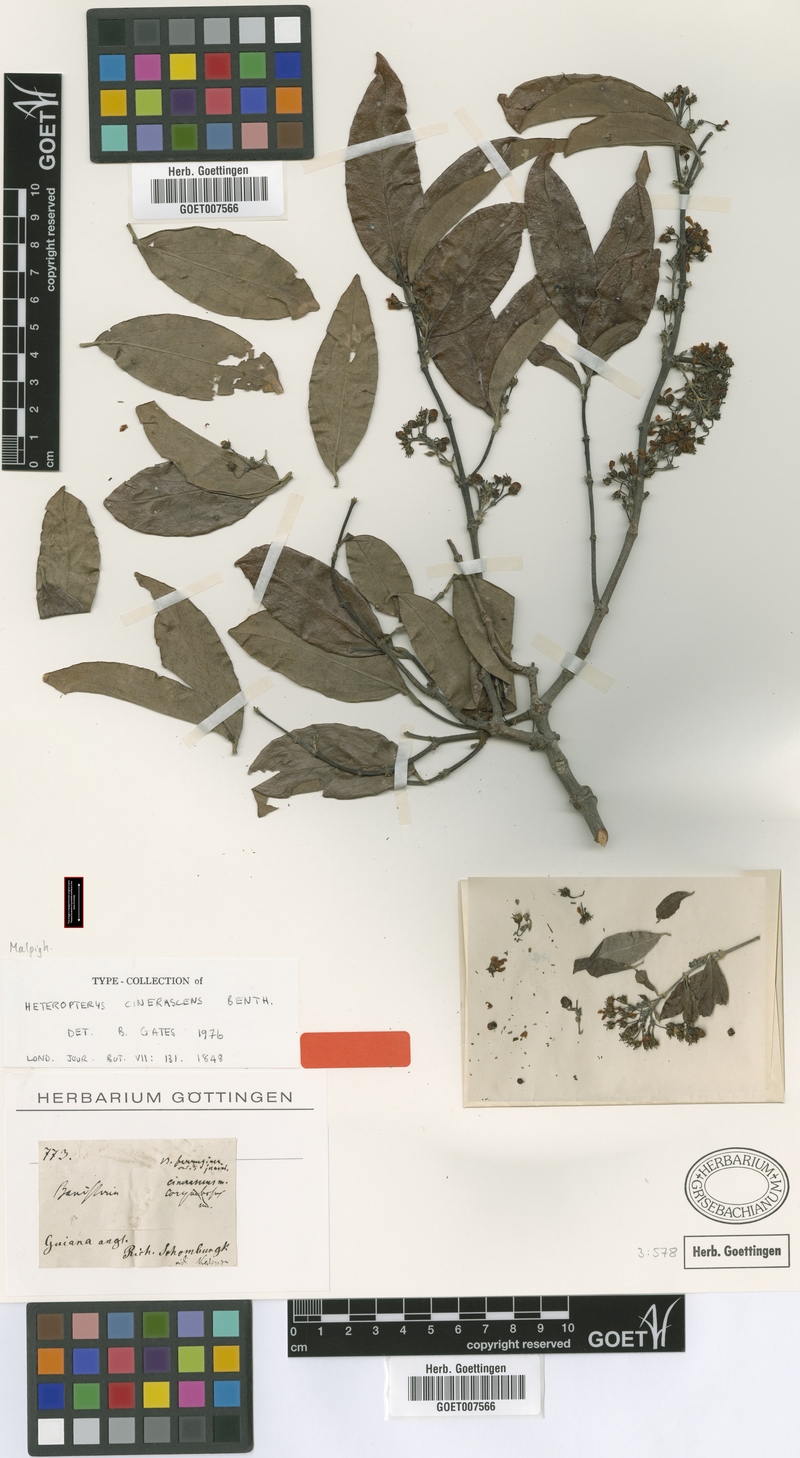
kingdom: Plantae
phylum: Tracheophyta
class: Magnoliopsida
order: Malpighiales
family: Malpighiaceae
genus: Bronwenia
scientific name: Bronwenia cinerascens
